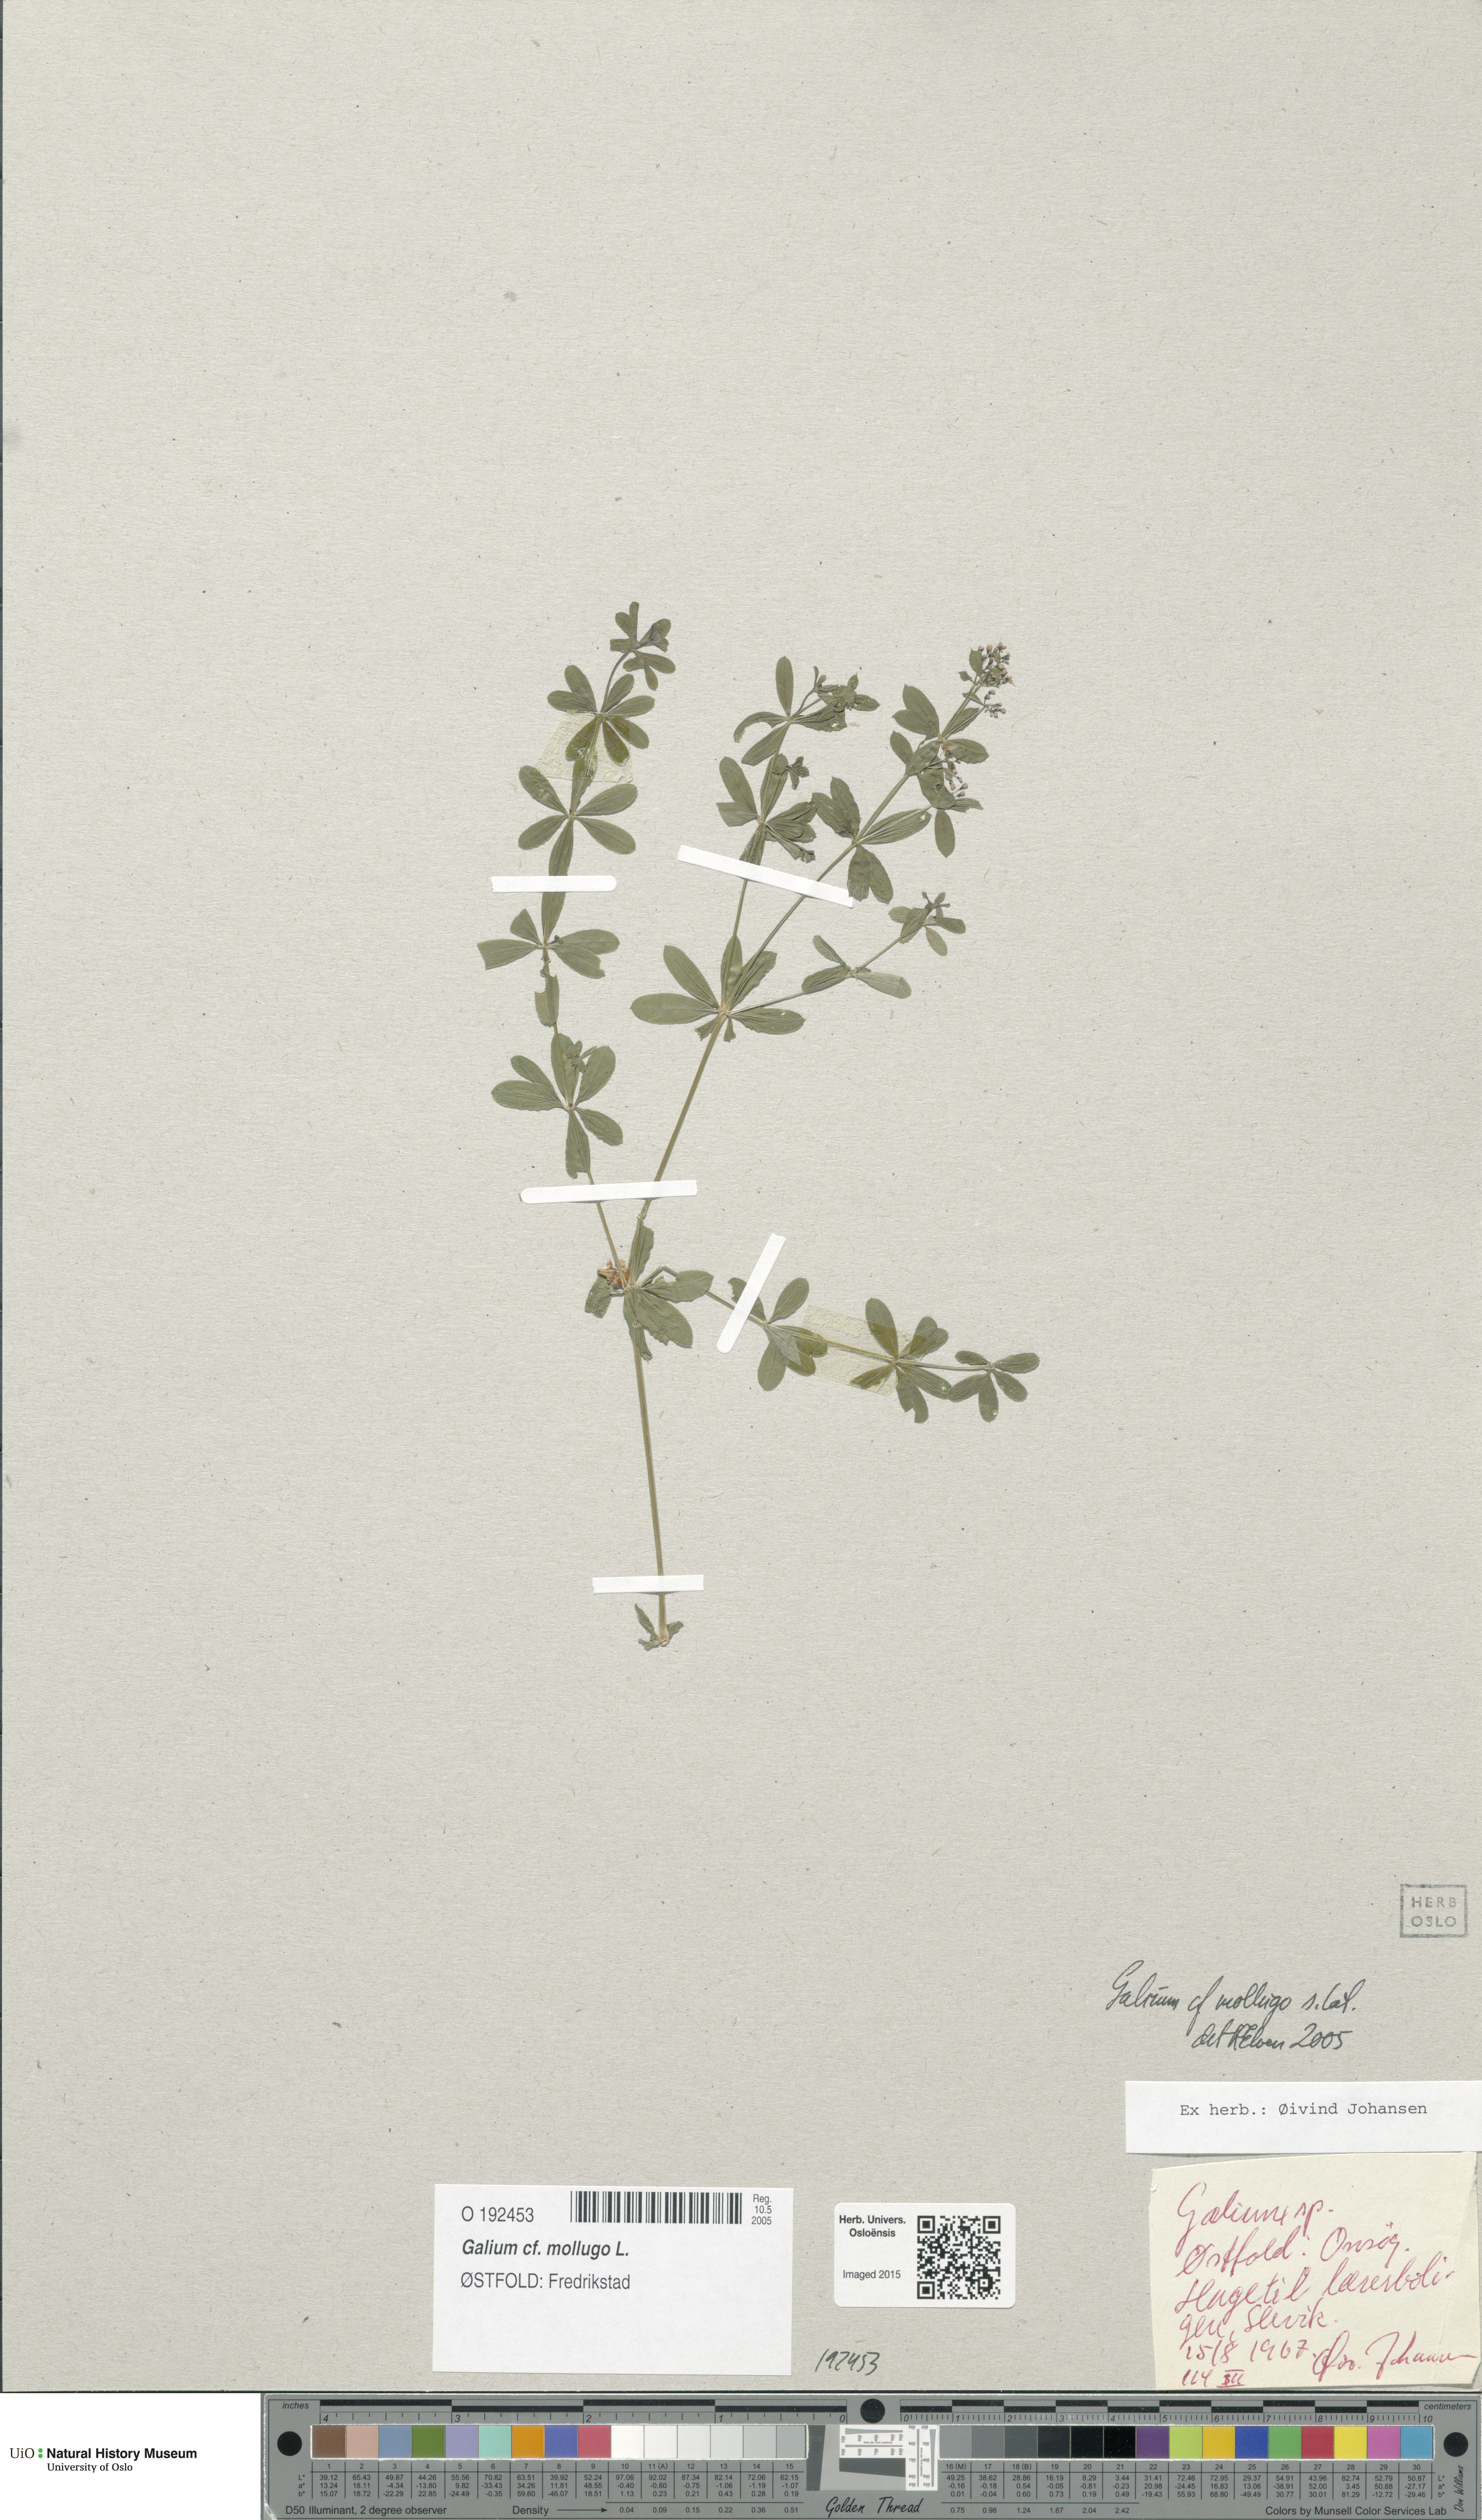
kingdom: Plantae
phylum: Tracheophyta
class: Magnoliopsida
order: Gentianales
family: Rubiaceae
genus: Galium
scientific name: Galium mollugo
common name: Hedge bedstraw
